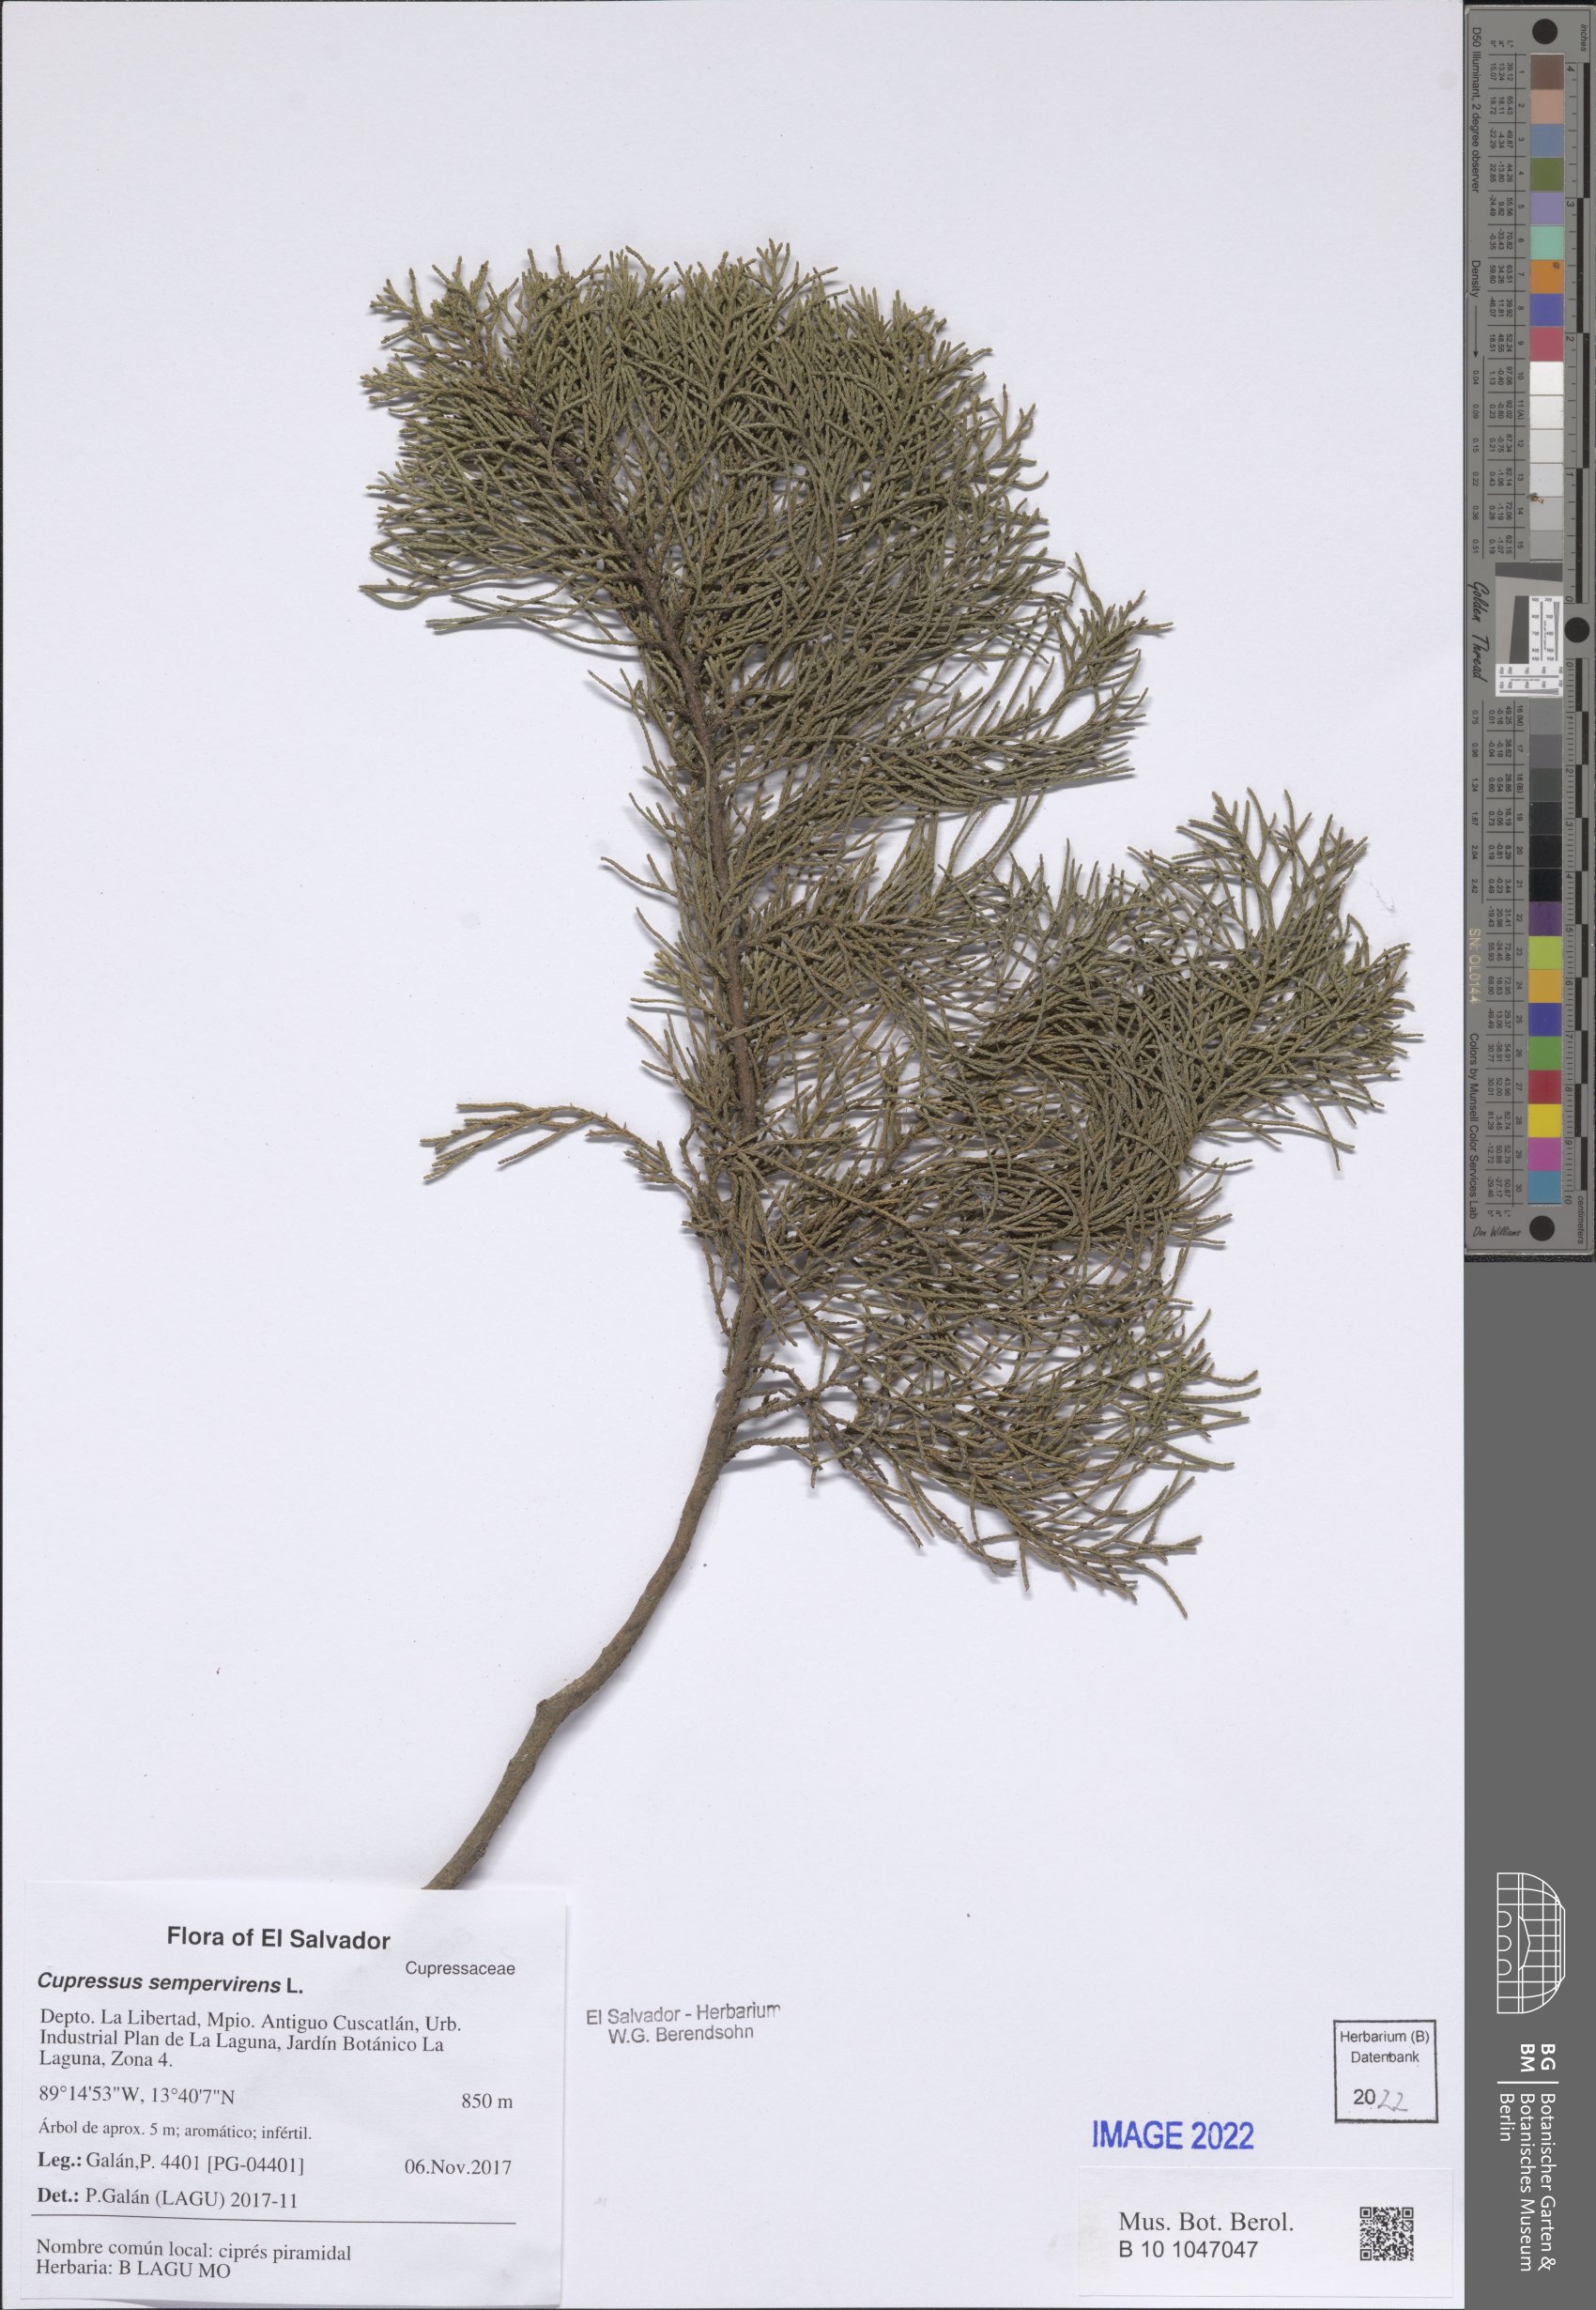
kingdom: Plantae
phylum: Tracheophyta
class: Pinopsida
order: Pinales
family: Cupressaceae
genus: Cupressus
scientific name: Cupressus sempervirens
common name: Italian cypress
